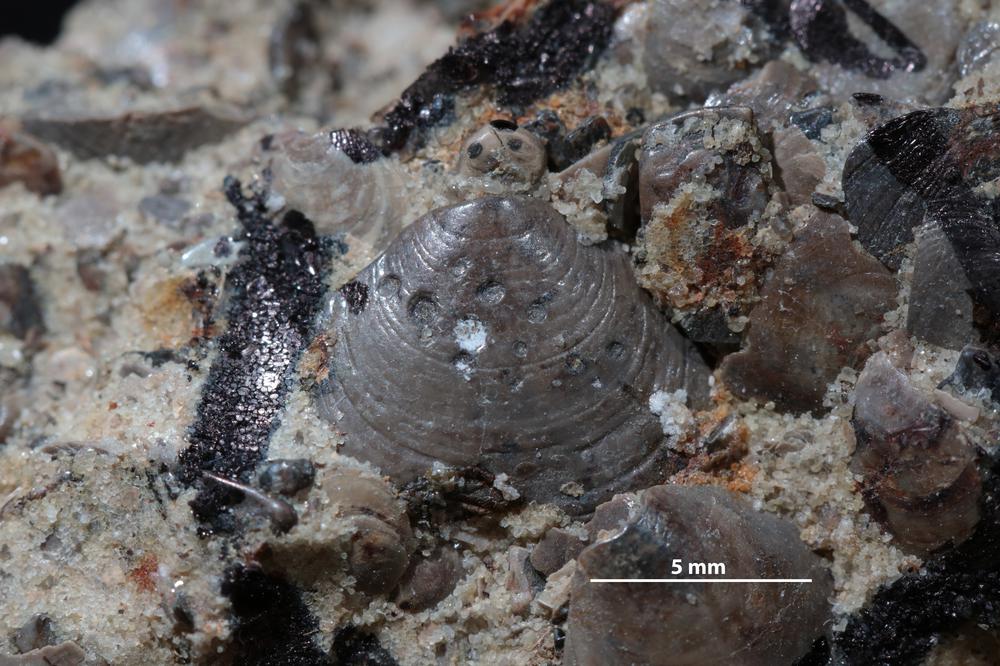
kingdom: Animalia
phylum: Brachiopoda
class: Lingulata
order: Lingulida
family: Obolidae
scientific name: Obolidae
